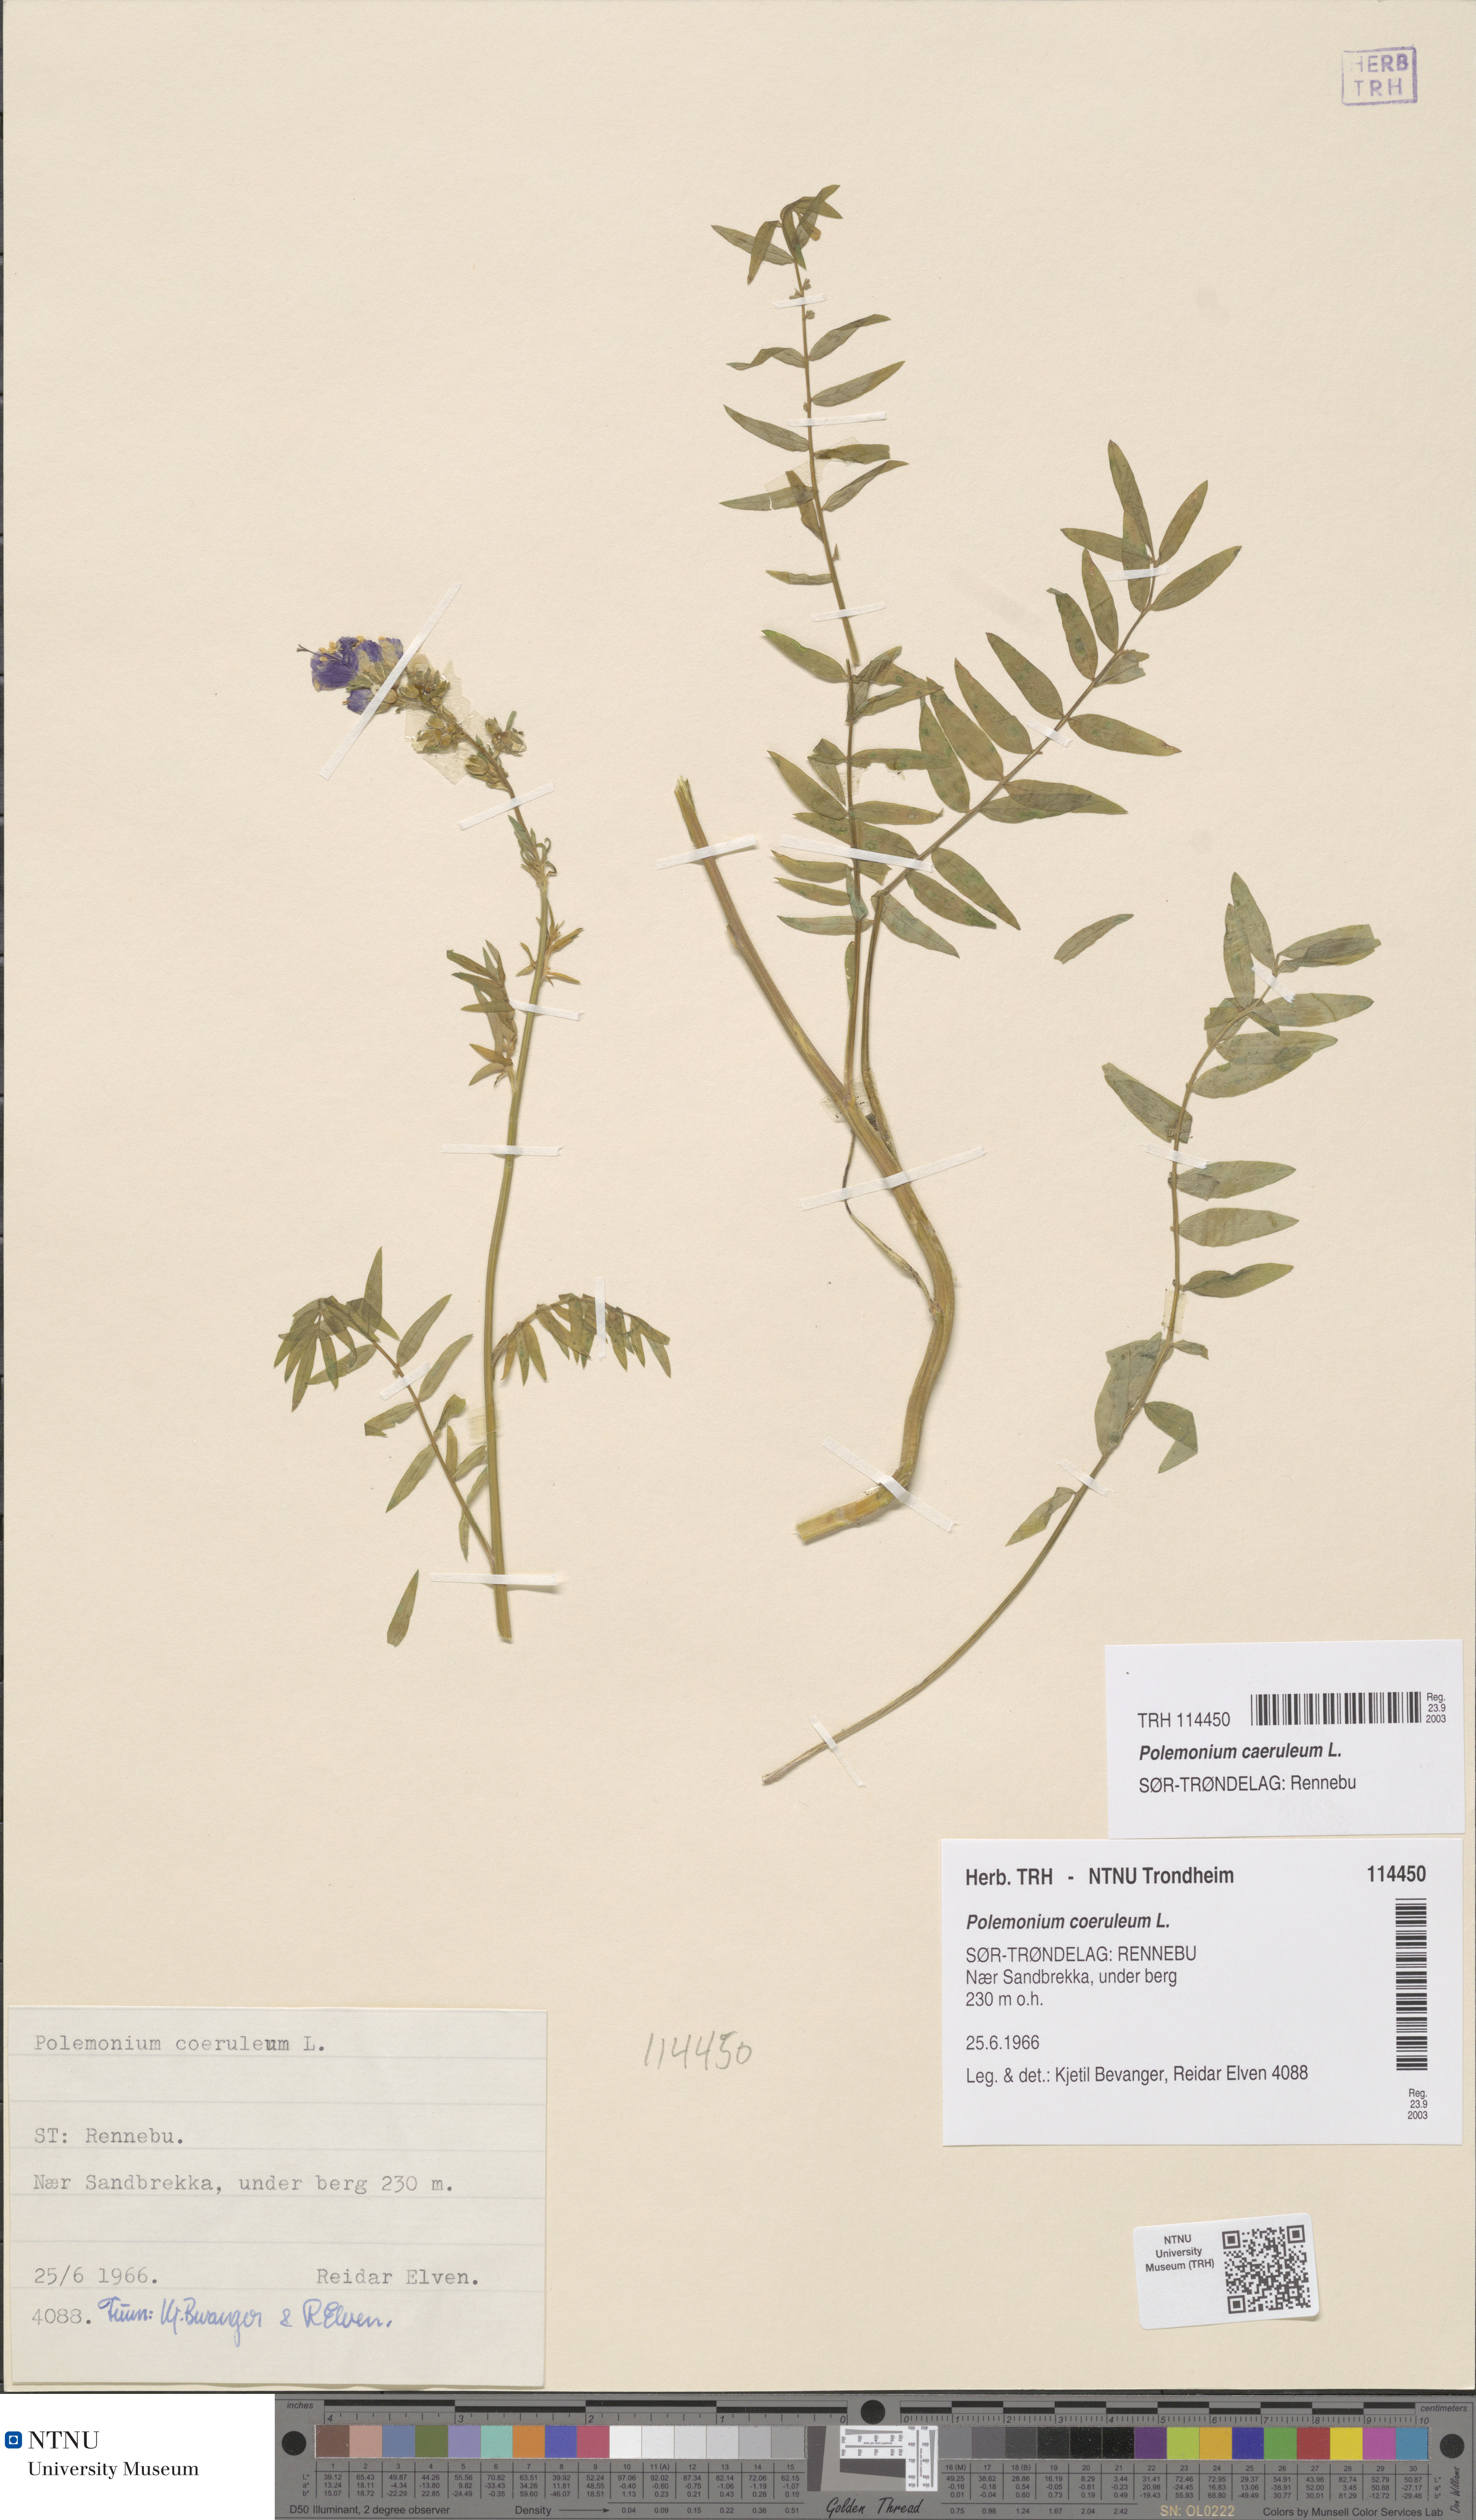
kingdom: Plantae
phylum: Tracheophyta
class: Magnoliopsida
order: Ericales
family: Polemoniaceae
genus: Polemonium
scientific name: Polemonium caeruleum
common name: Jacob's-ladder
